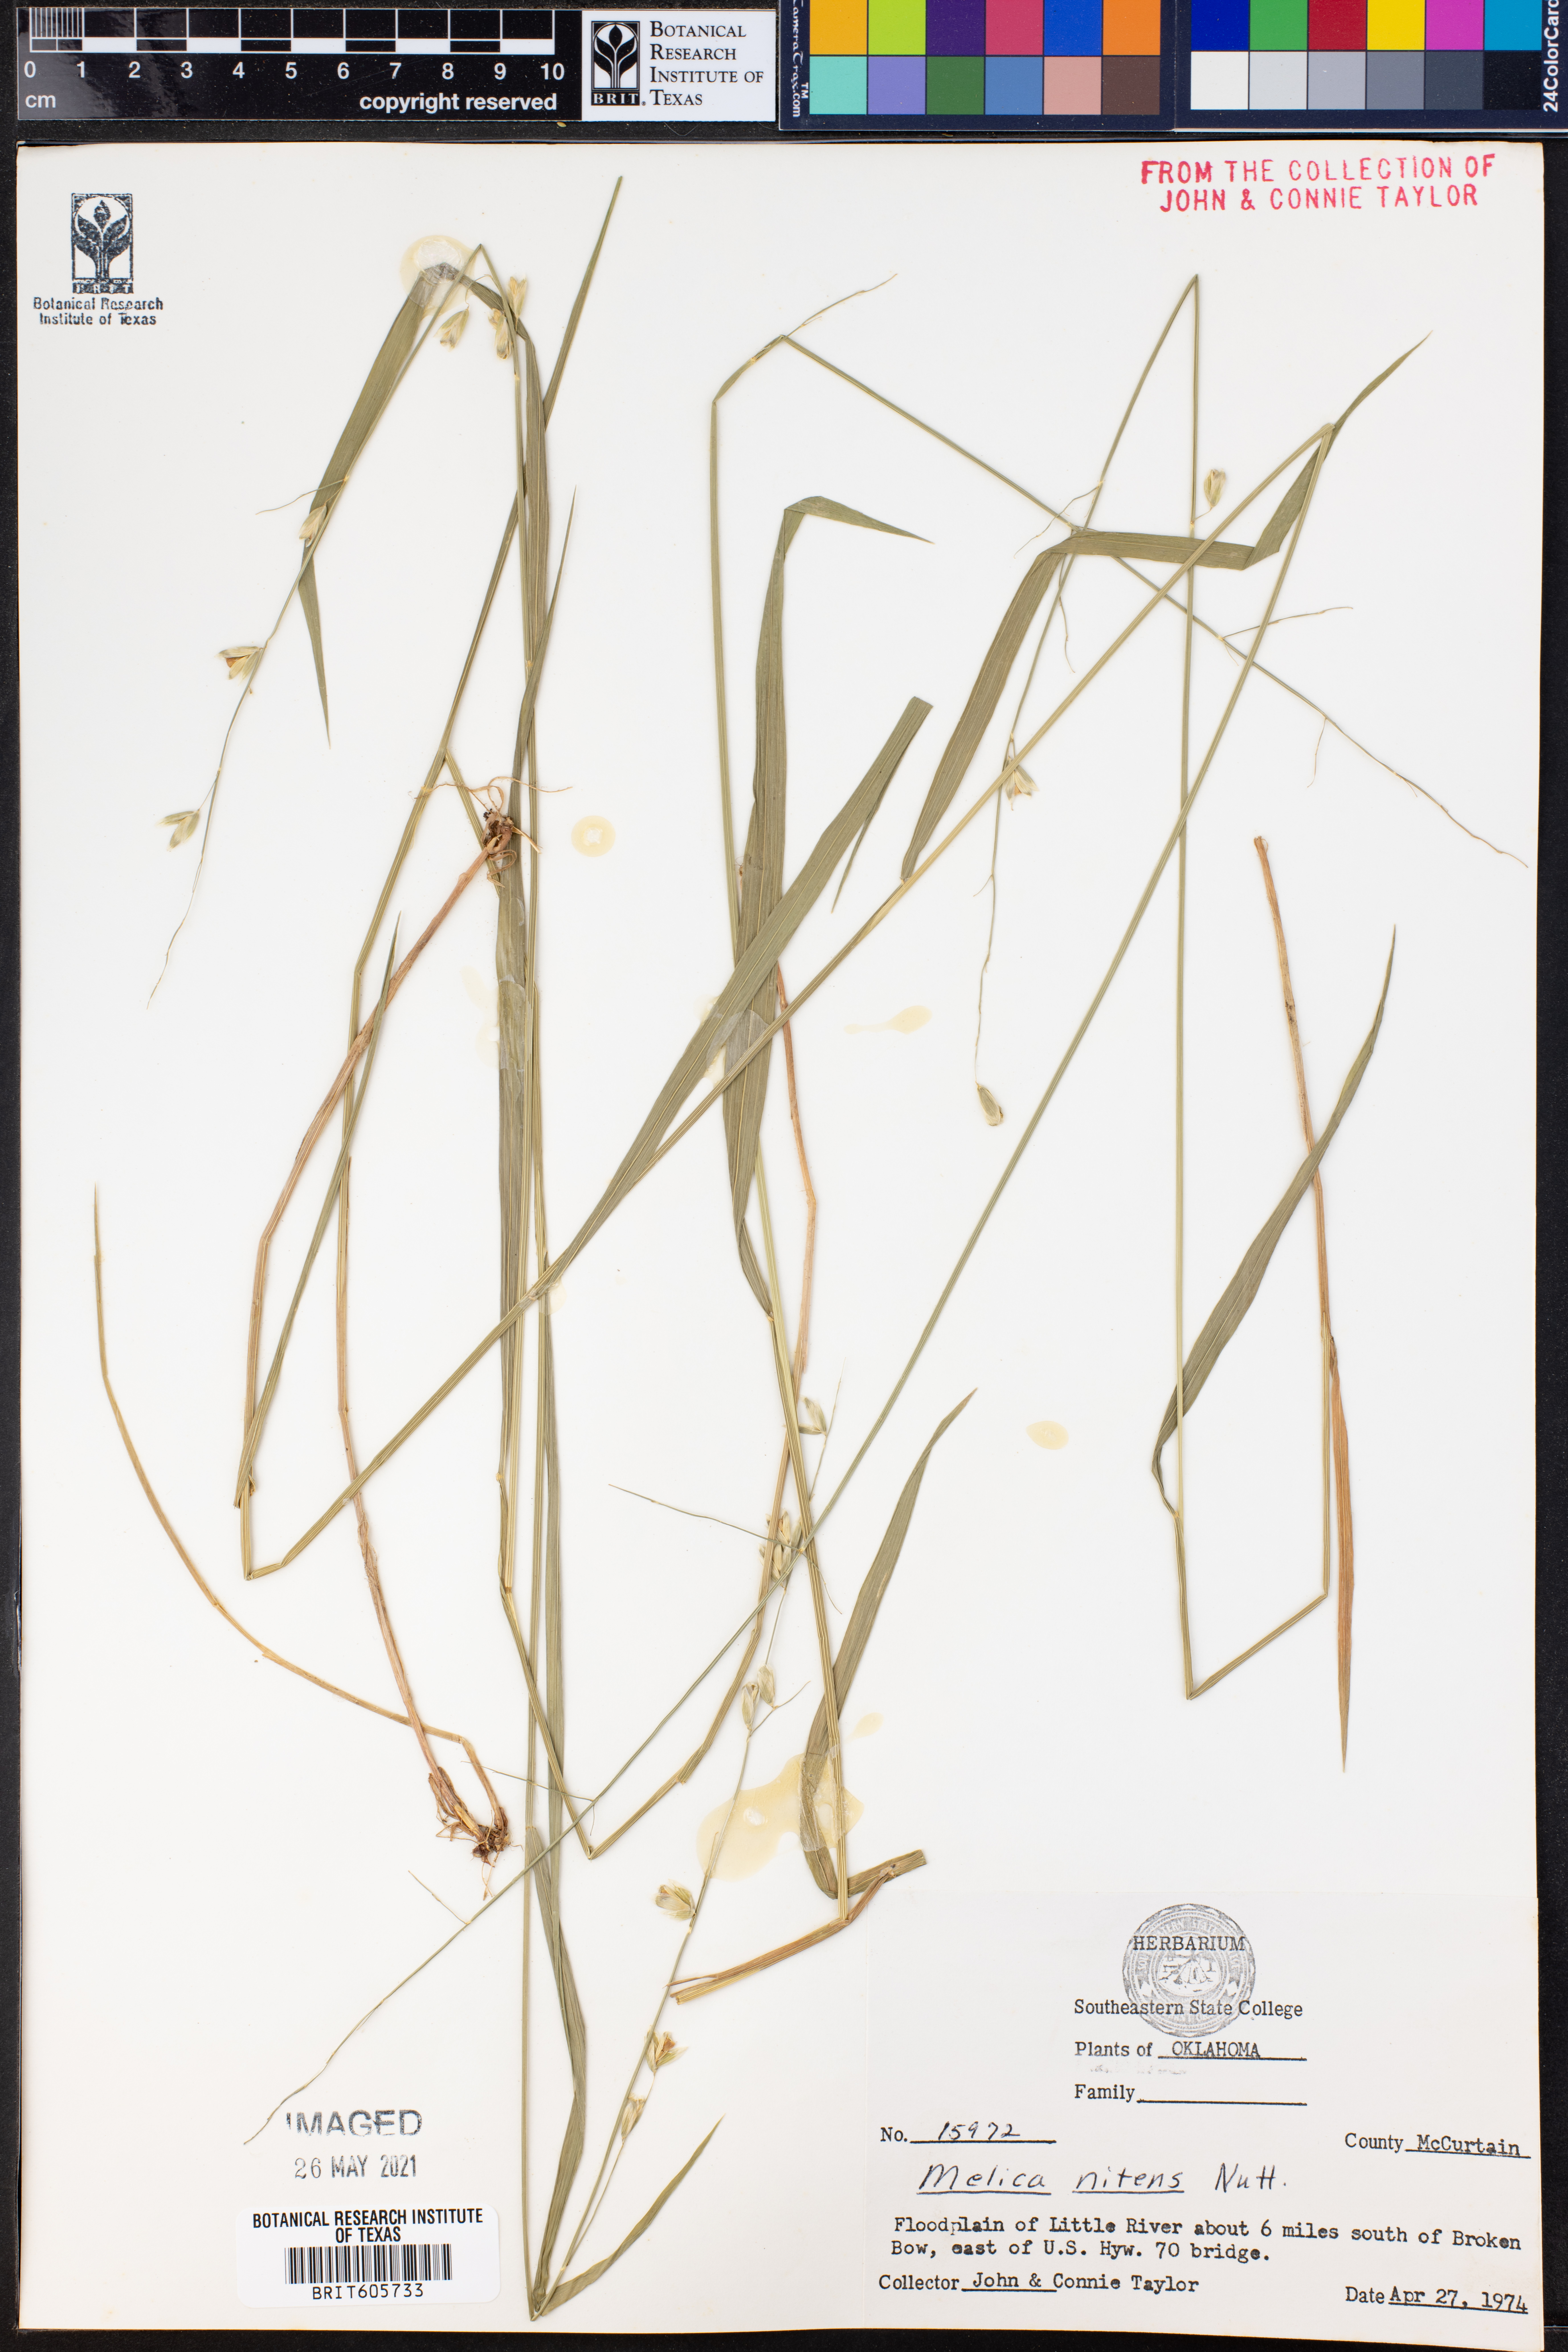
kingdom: Plantae
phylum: Tracheophyta
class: Liliopsida
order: Poales
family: Poaceae
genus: Melica
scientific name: Melica nitens
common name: Three-flower melic
